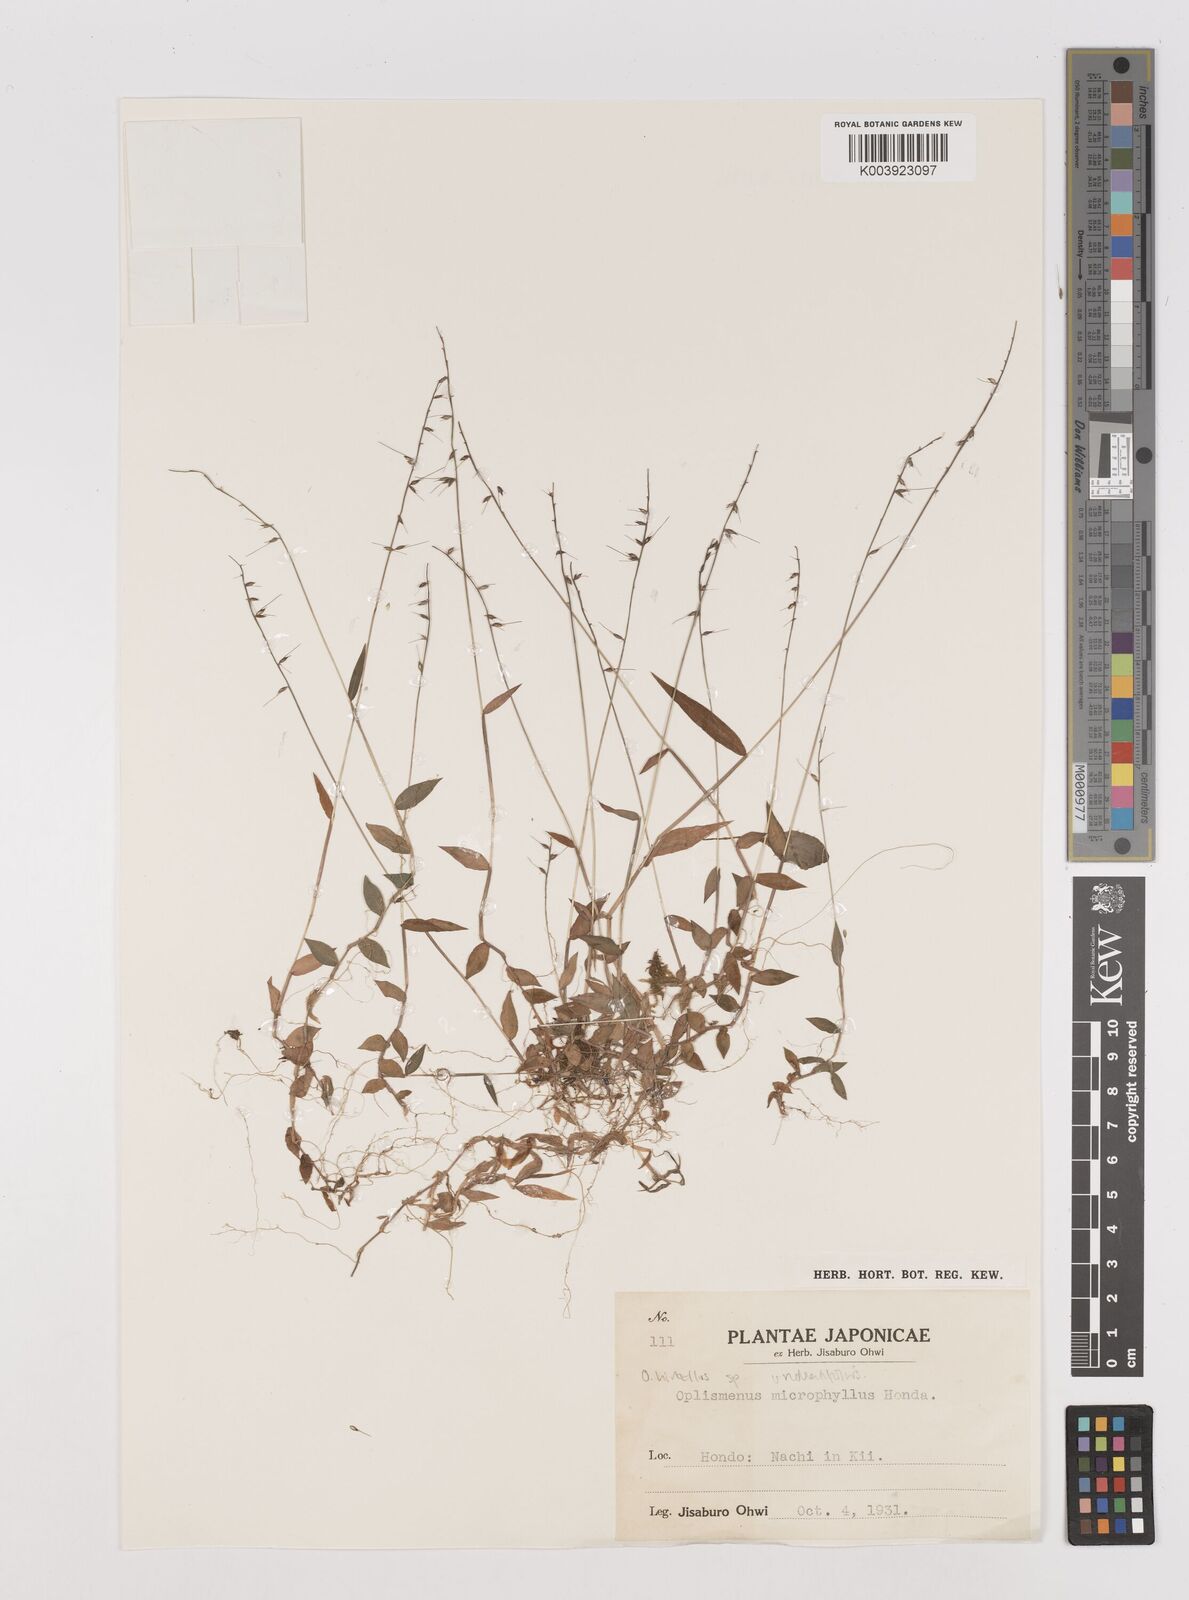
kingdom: Plantae
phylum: Tracheophyta
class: Liliopsida
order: Poales
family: Poaceae
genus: Oplismenus
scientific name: Oplismenus undulatifolius
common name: Wavyleaf basketgrass
